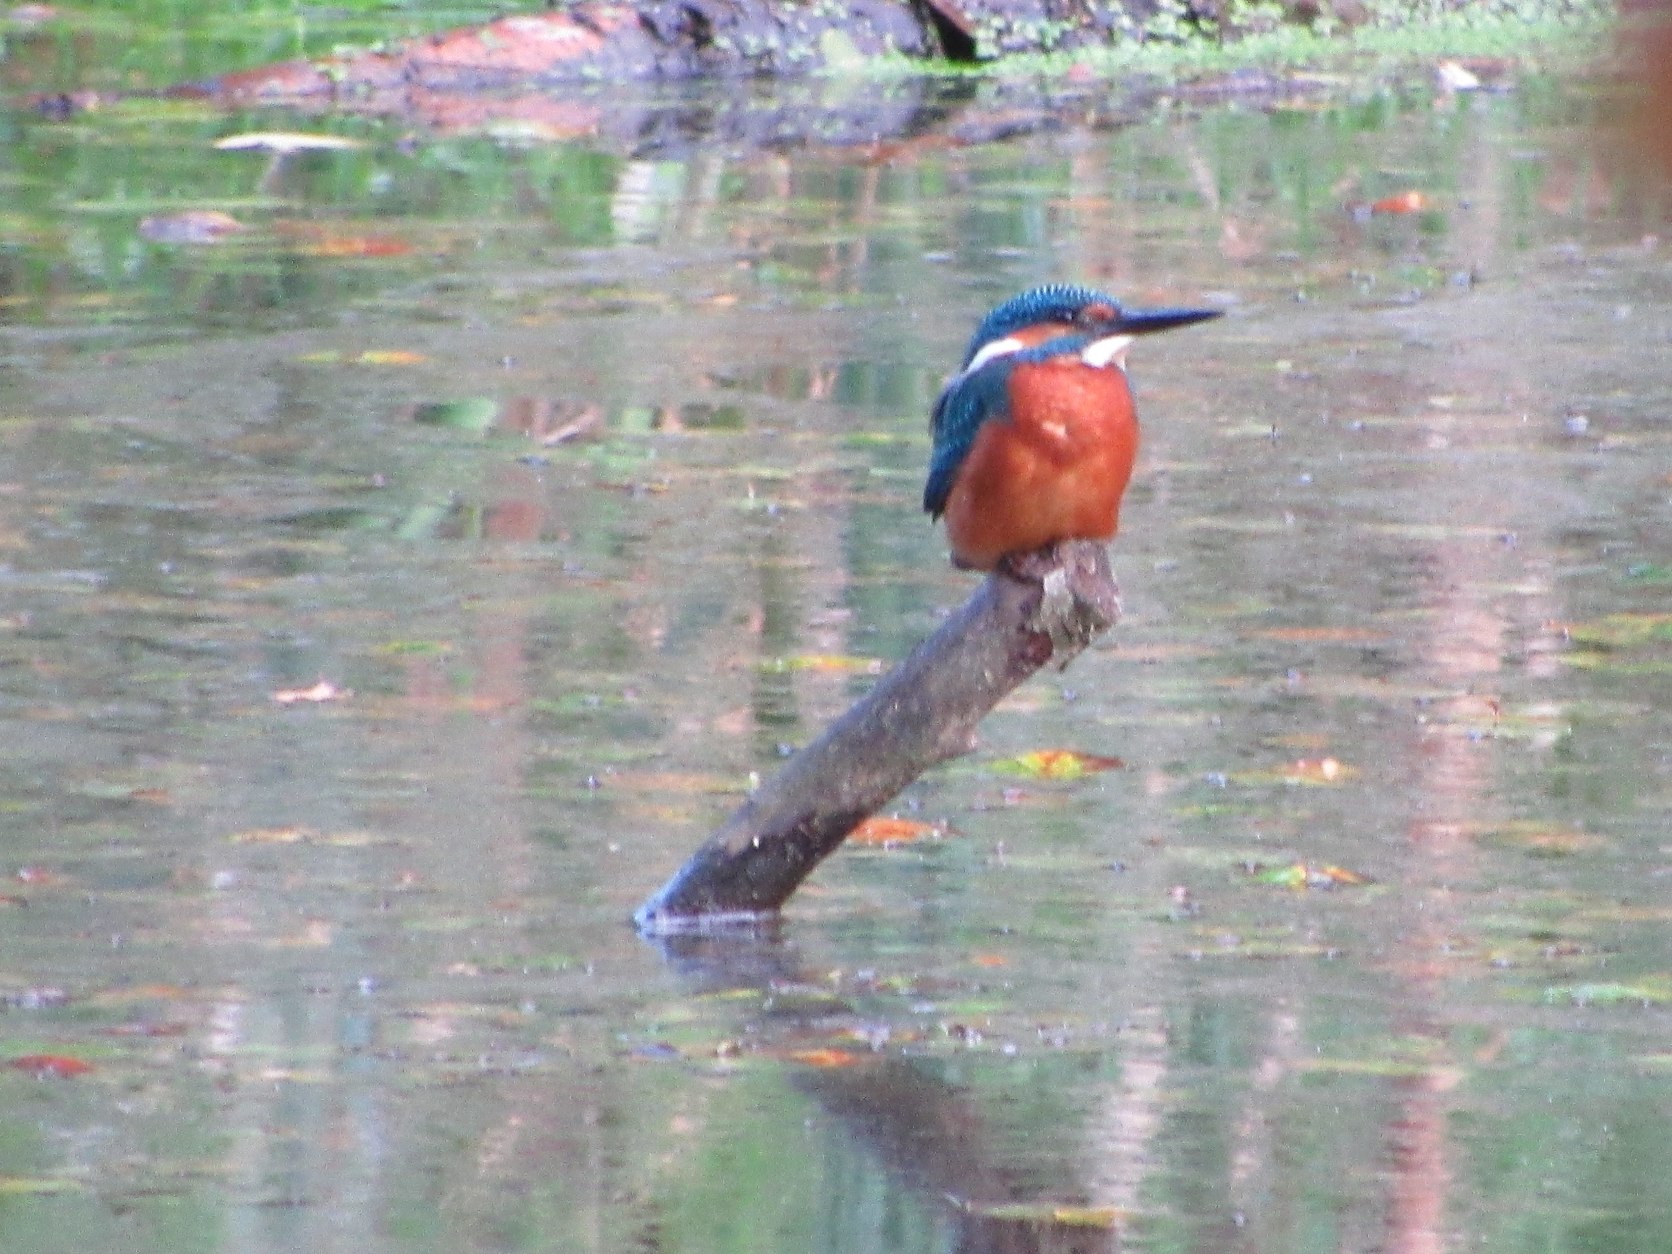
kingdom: Animalia
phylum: Chordata
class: Aves
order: Coraciiformes
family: Alcedinidae
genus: Alcedo
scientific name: Alcedo atthis
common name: Isfugl
